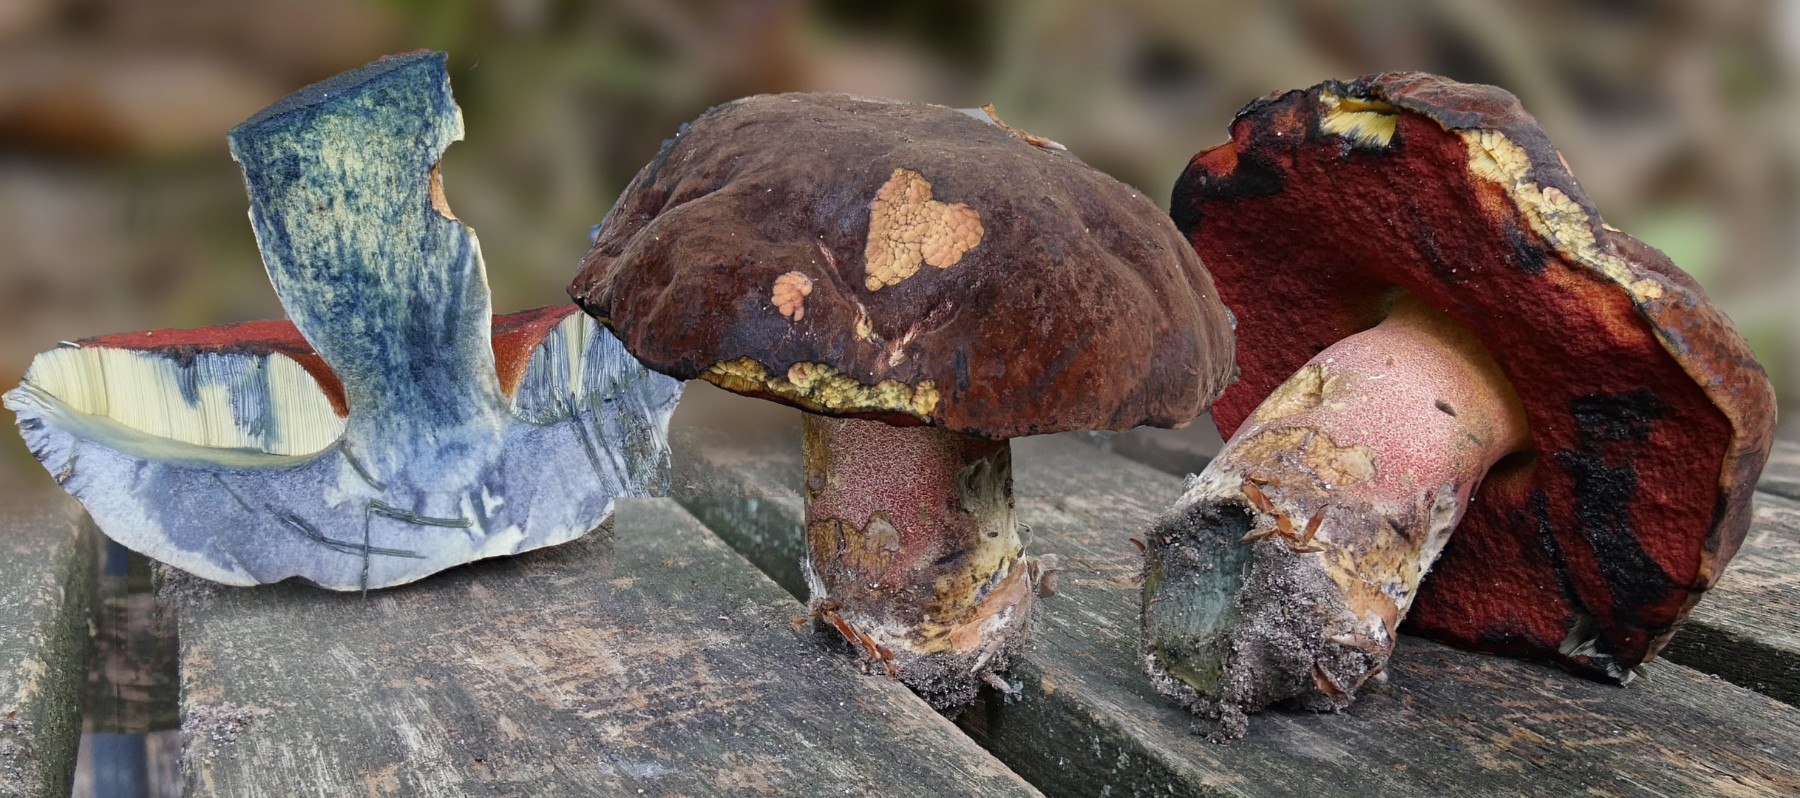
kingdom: Fungi
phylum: Basidiomycota
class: Agaricomycetes
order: Boletales
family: Boletaceae
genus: Neoboletus
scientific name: Neoboletus erythropus
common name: punktstokket indigorørhat
